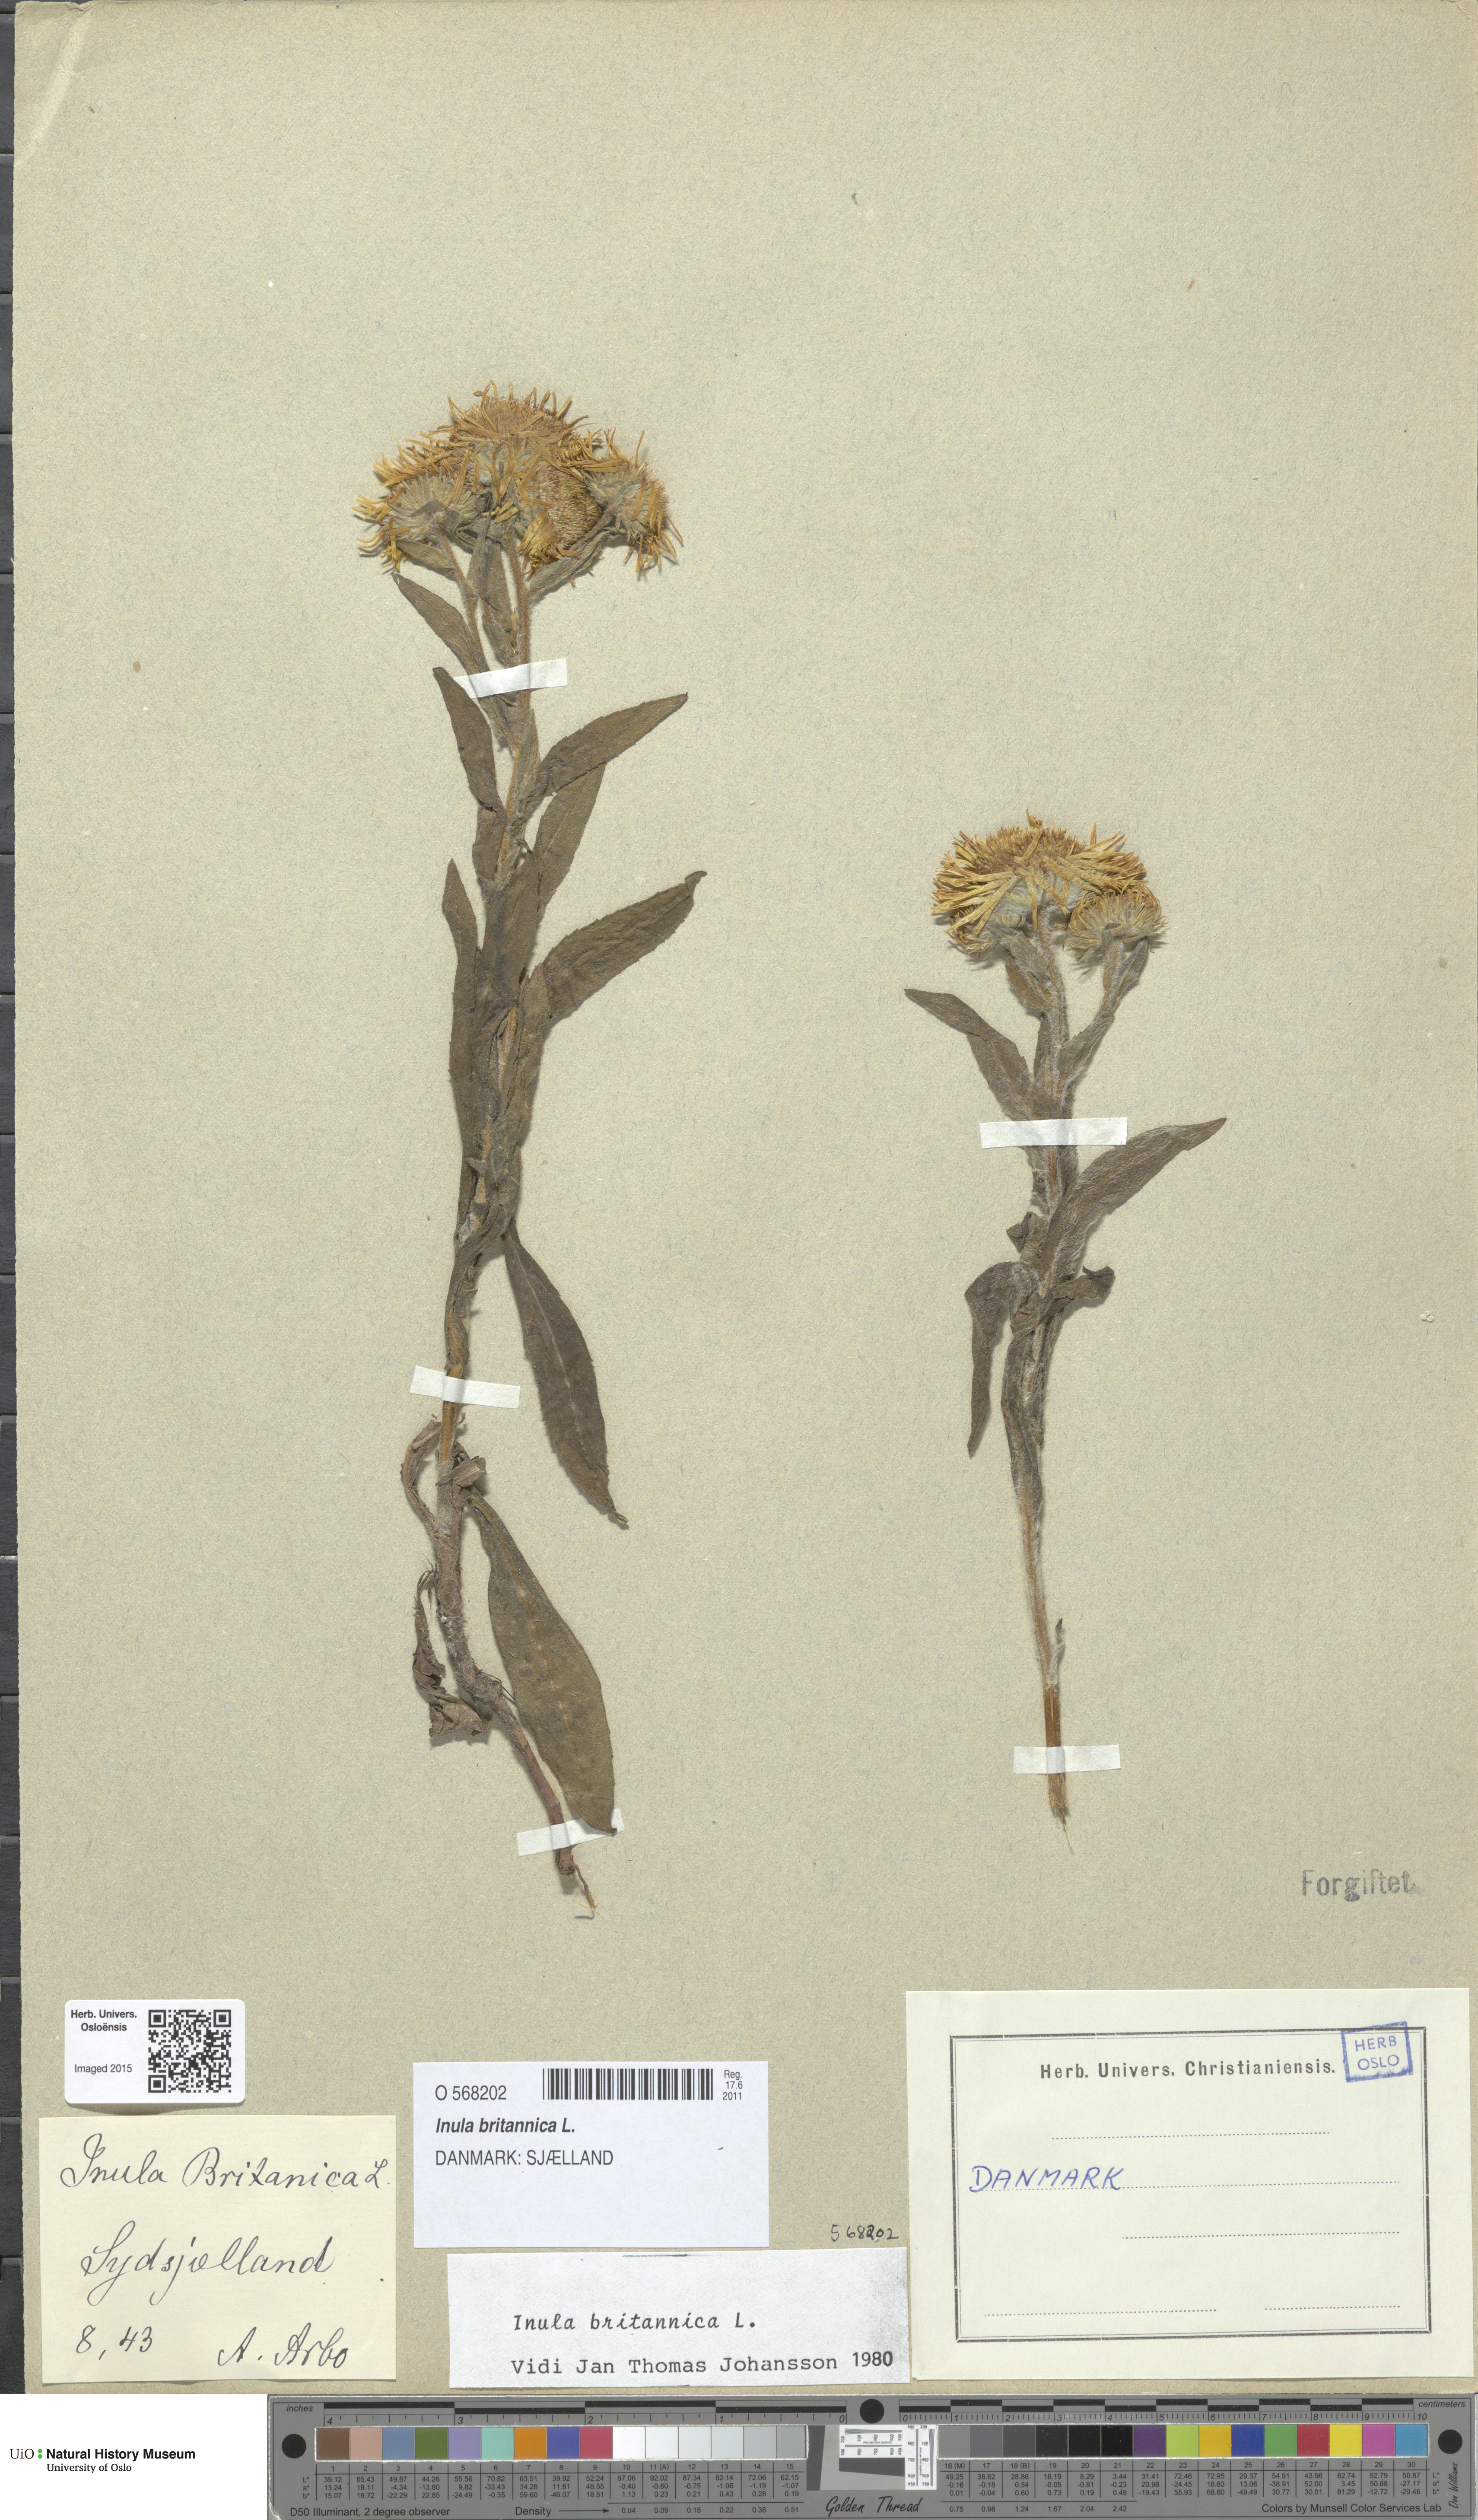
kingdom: Plantae
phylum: Tracheophyta
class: Magnoliopsida
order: Asterales
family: Asteraceae
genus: Pentanema
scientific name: Pentanema britannicum
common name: British elecampane
